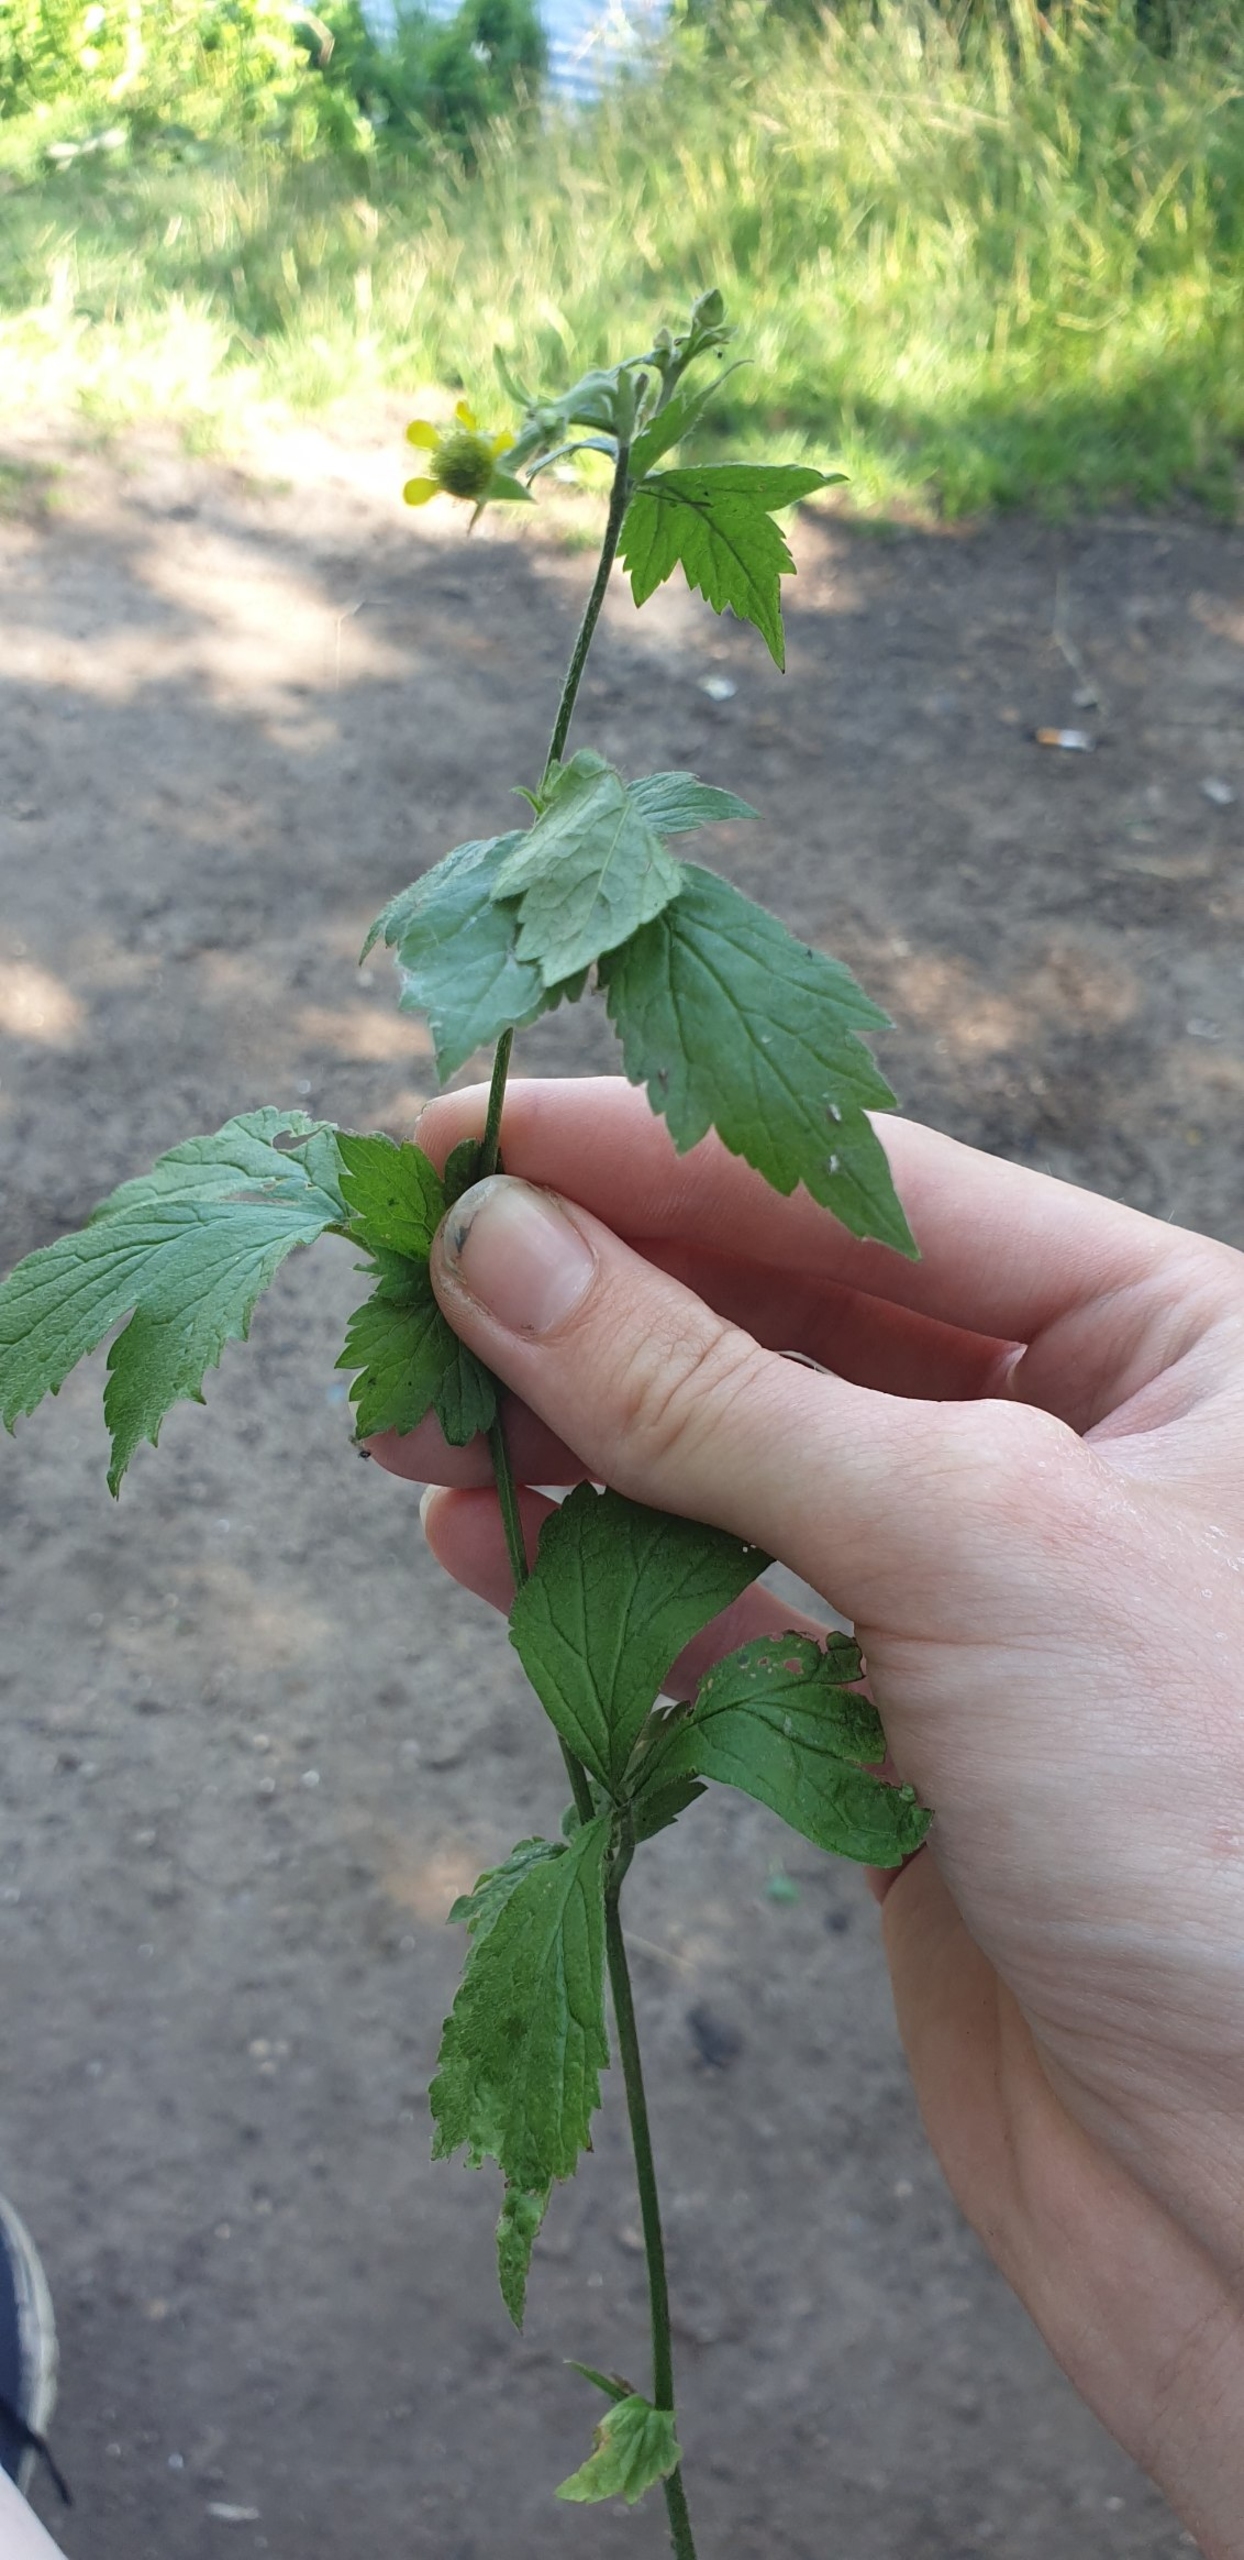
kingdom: Plantae
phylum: Tracheophyta
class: Magnoliopsida
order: Rosales
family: Rosaceae
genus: Geum
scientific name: Geum urbanum
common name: Feber-nellikerod
